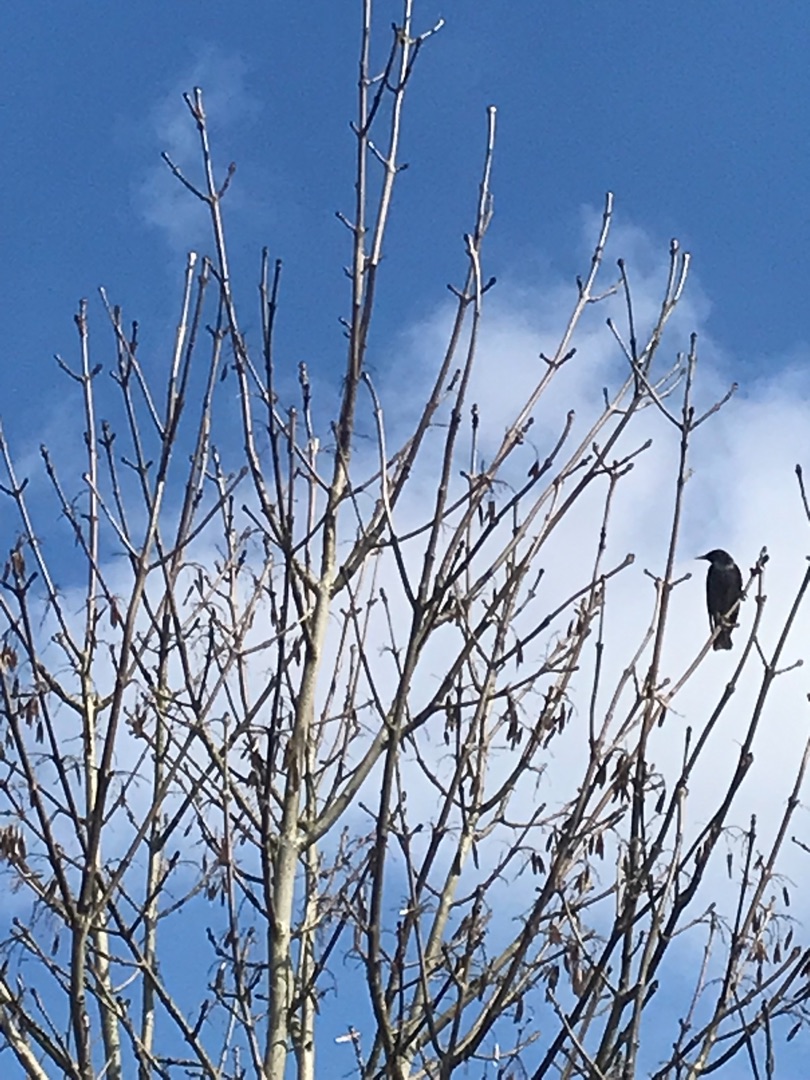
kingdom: Animalia
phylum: Chordata
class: Aves
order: Passeriformes
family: Sturnidae
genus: Sturnus
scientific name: Sturnus vulgaris
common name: Stær
